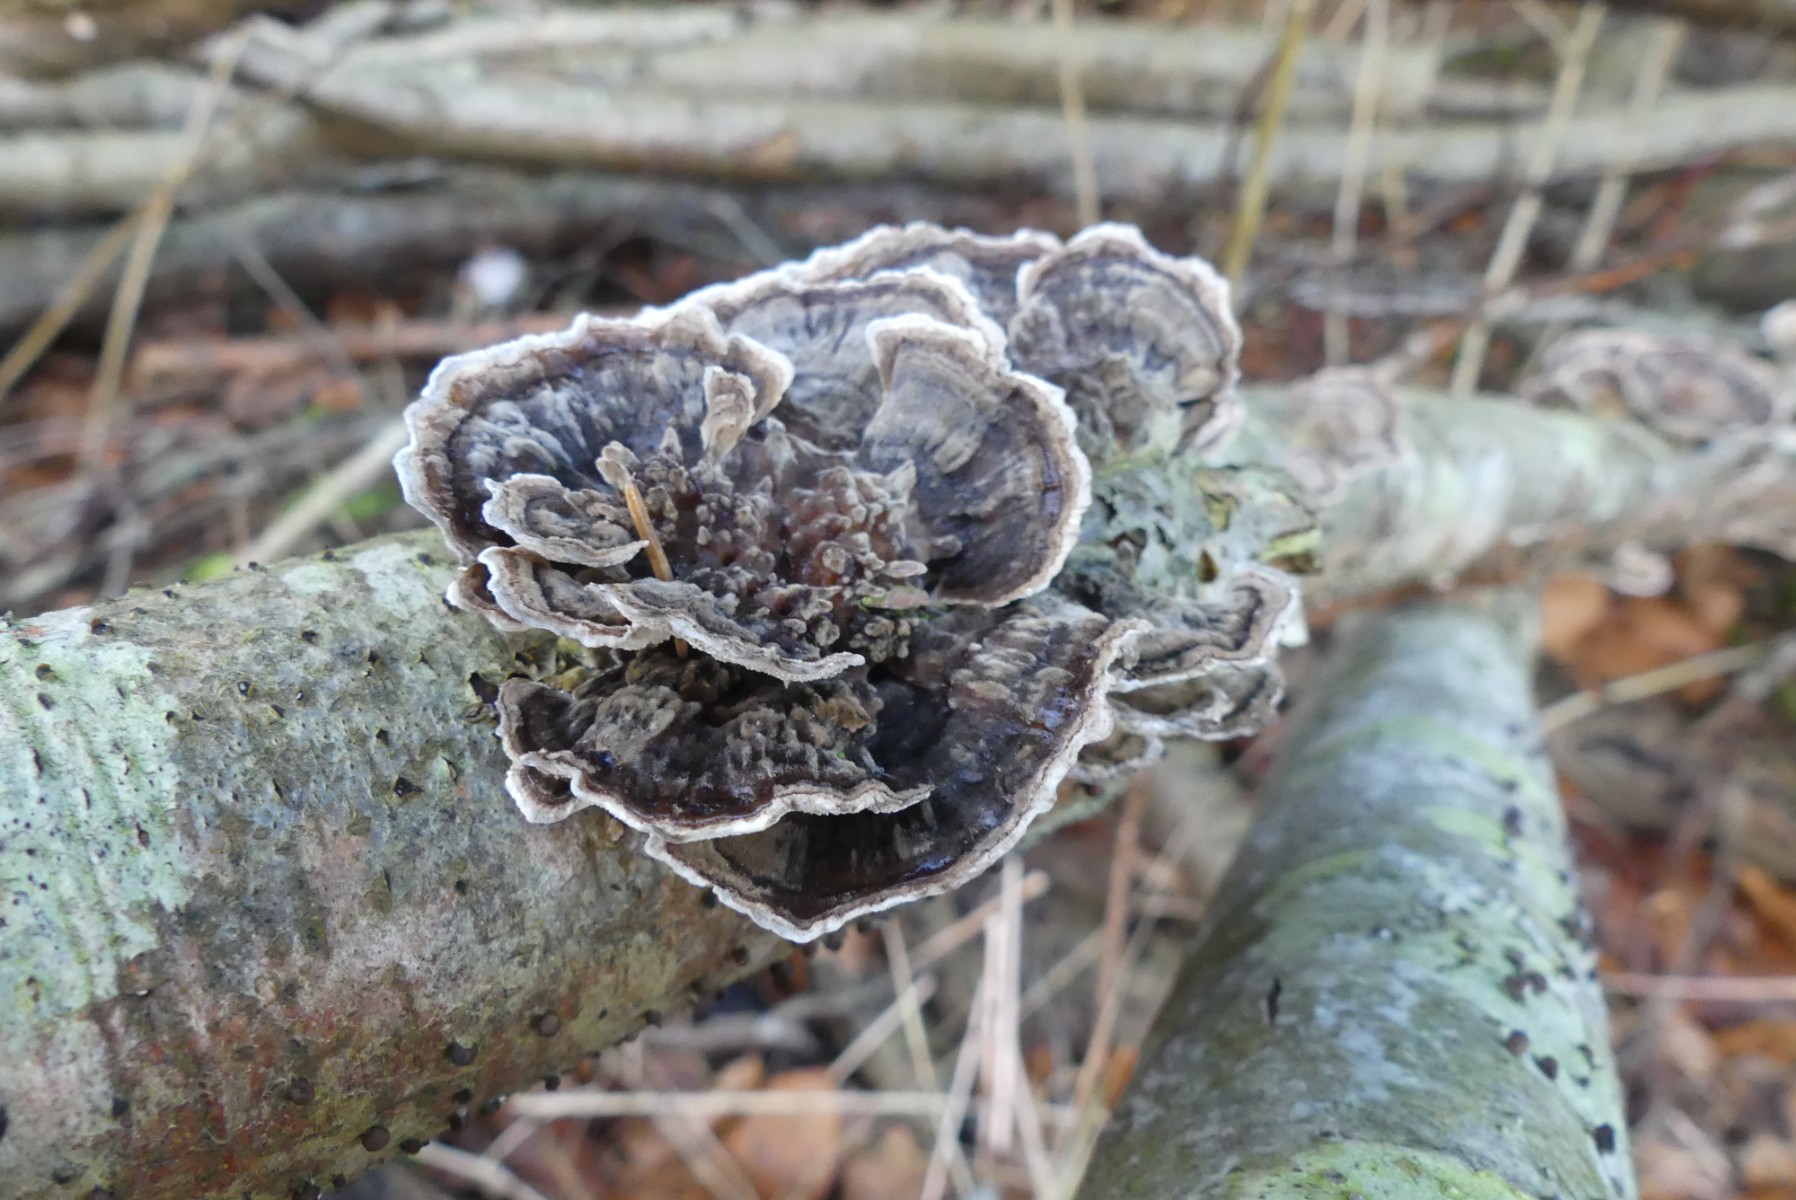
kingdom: Fungi
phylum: Basidiomycota
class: Agaricomycetes
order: Polyporales
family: Polyporaceae
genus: Trametes
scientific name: Trametes versicolor
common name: broget læderporesvamp
